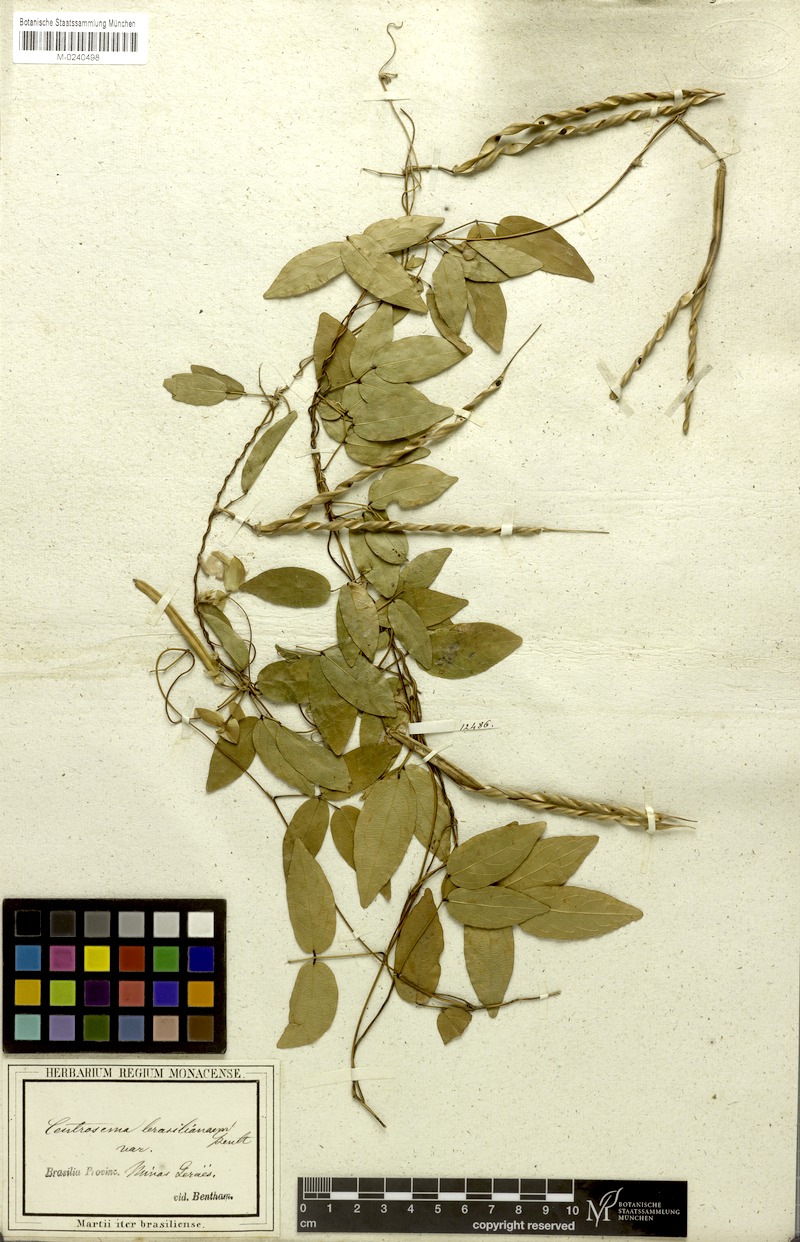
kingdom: Plantae
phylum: Tracheophyta
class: Magnoliopsida
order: Fabales
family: Fabaceae
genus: Centrosema
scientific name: Centrosema brasilianum
